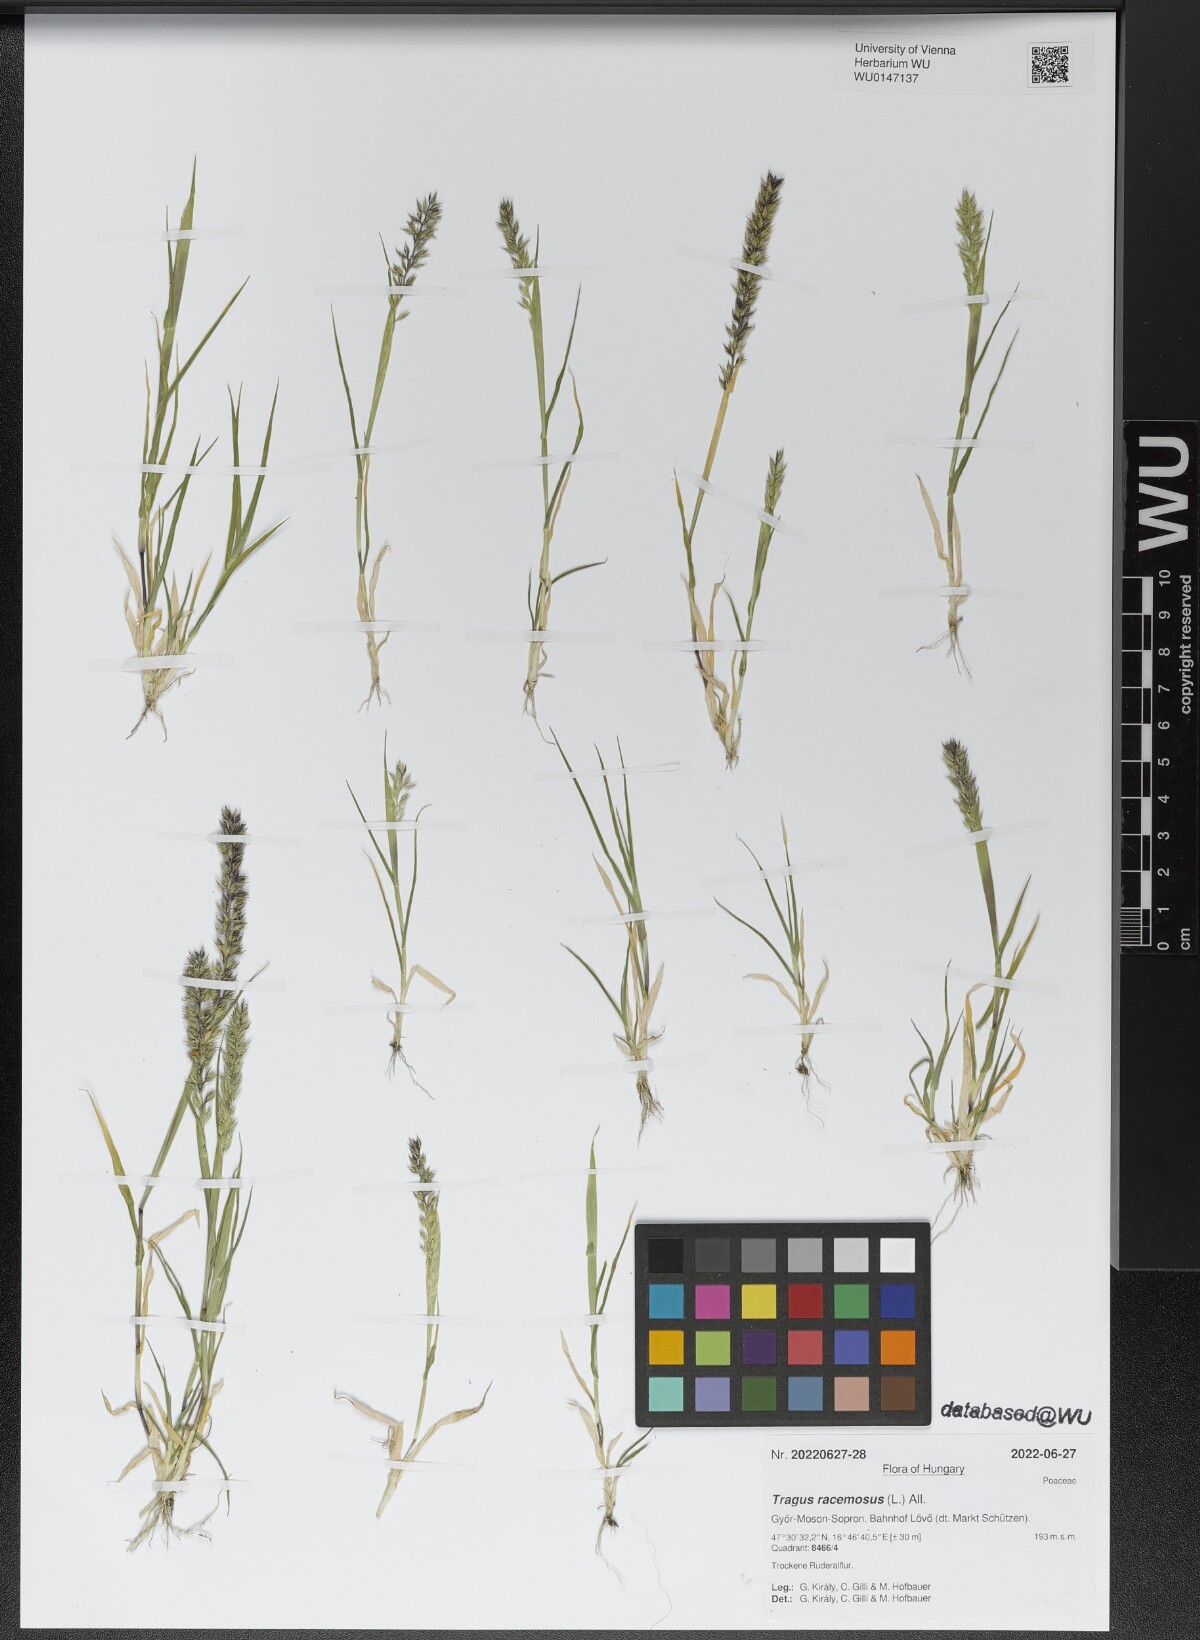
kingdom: Plantae
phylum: Tracheophyta
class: Liliopsida
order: Poales
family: Poaceae
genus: Tragus
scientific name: Tragus racemosus
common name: European bur-grass
